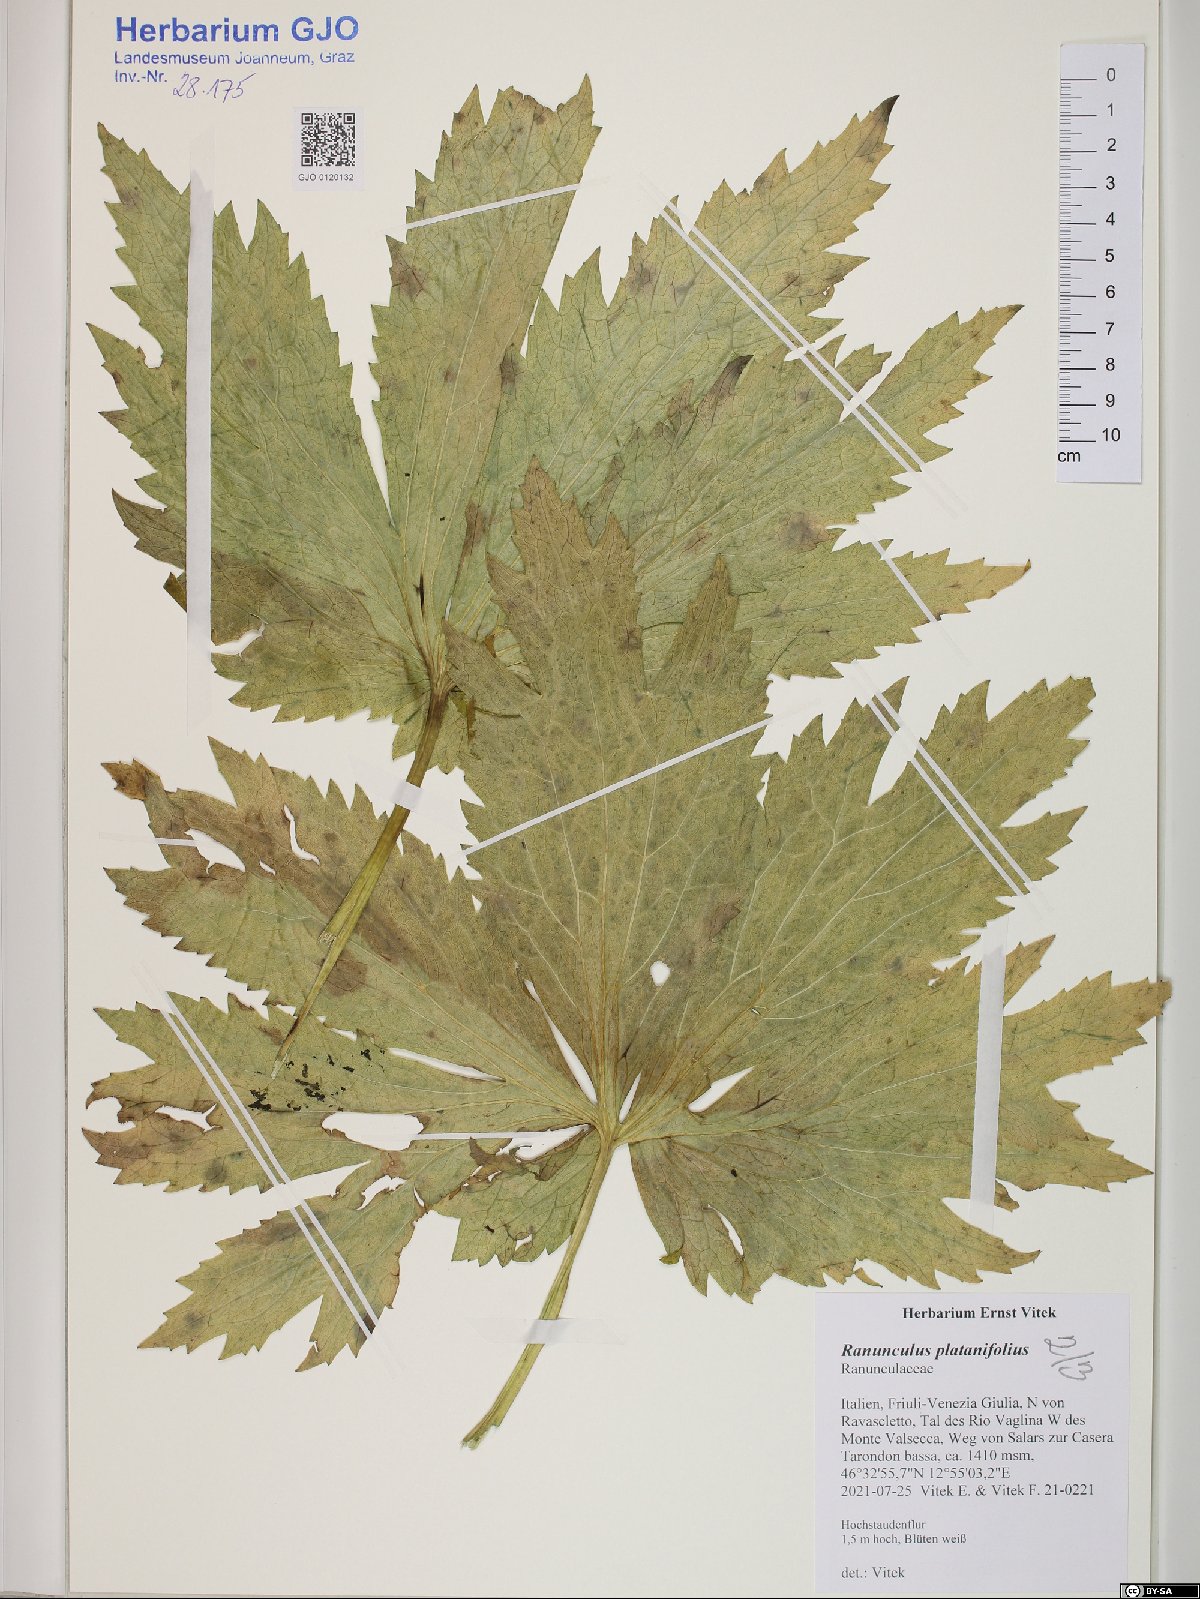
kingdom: Plantae
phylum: Tracheophyta
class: Magnoliopsida
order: Ranunculales
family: Ranunculaceae
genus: Ranunculus
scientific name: Ranunculus platanifolius
